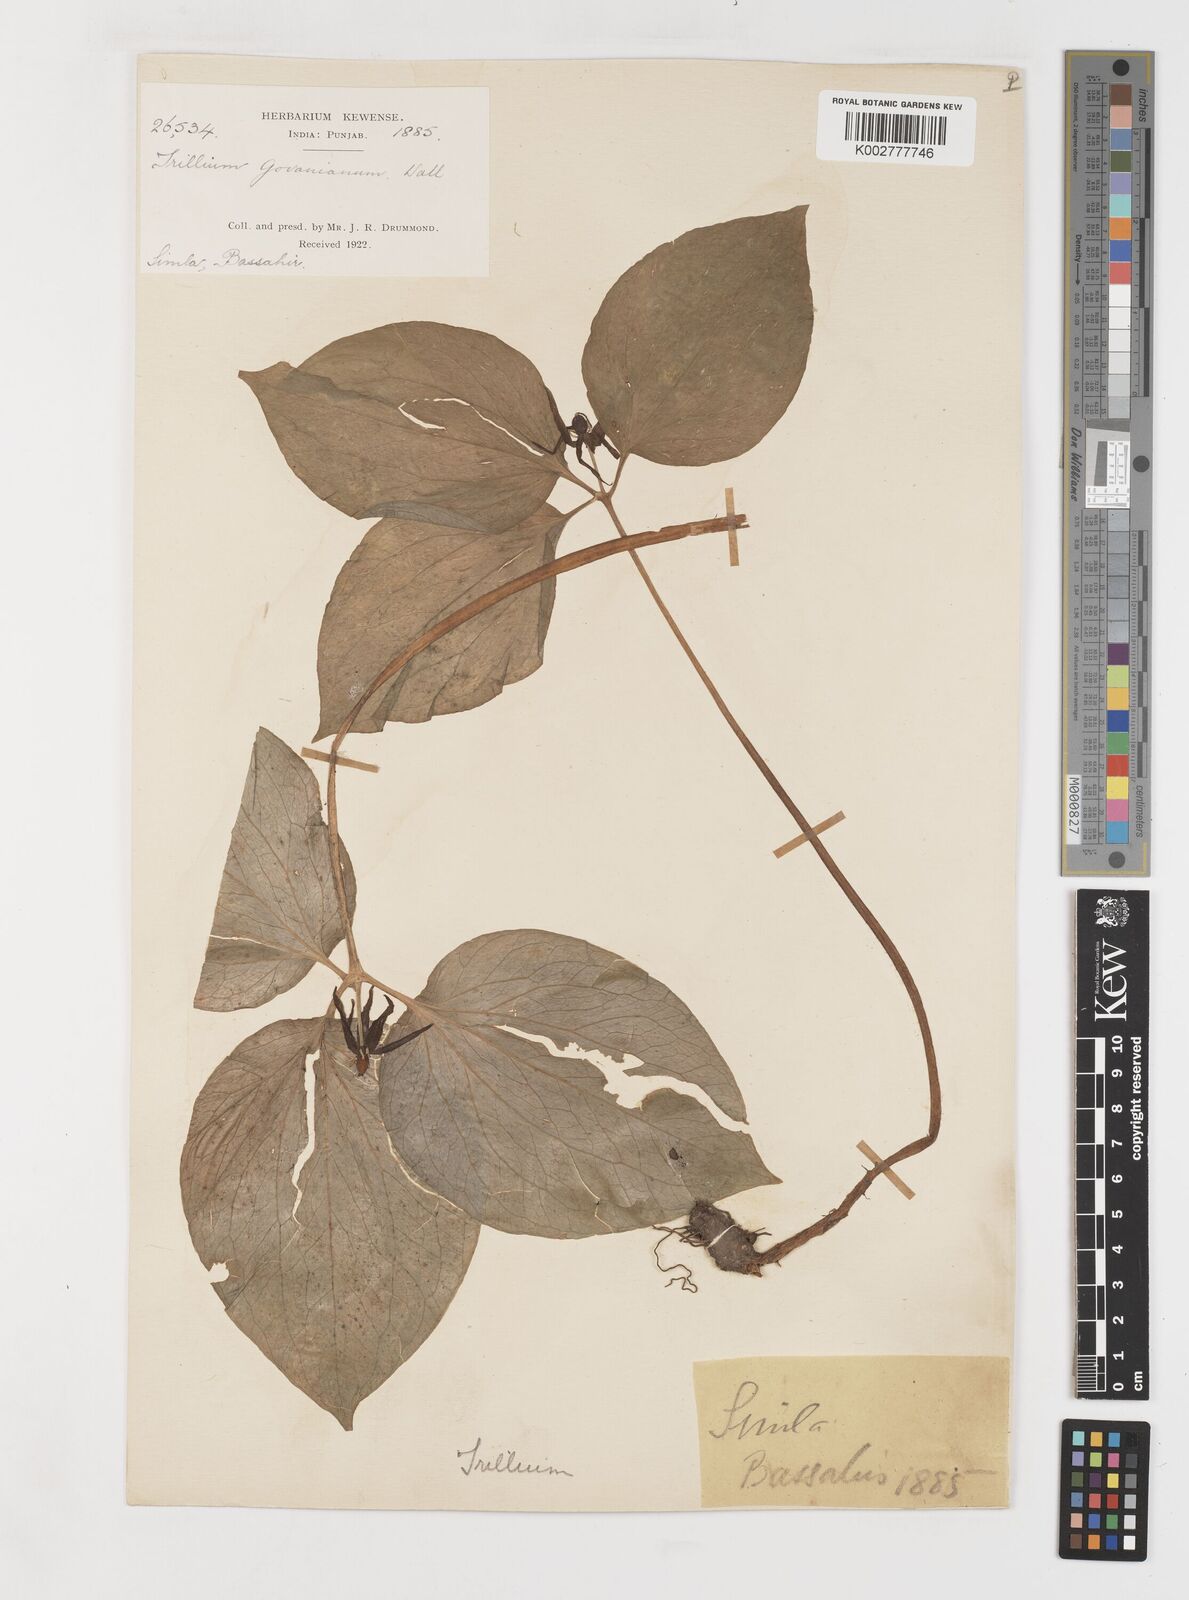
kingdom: Plantae
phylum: Tracheophyta
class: Liliopsida
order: Liliales
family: Melanthiaceae
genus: Trillium
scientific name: Trillium govanianum
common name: Himalayan trillium
